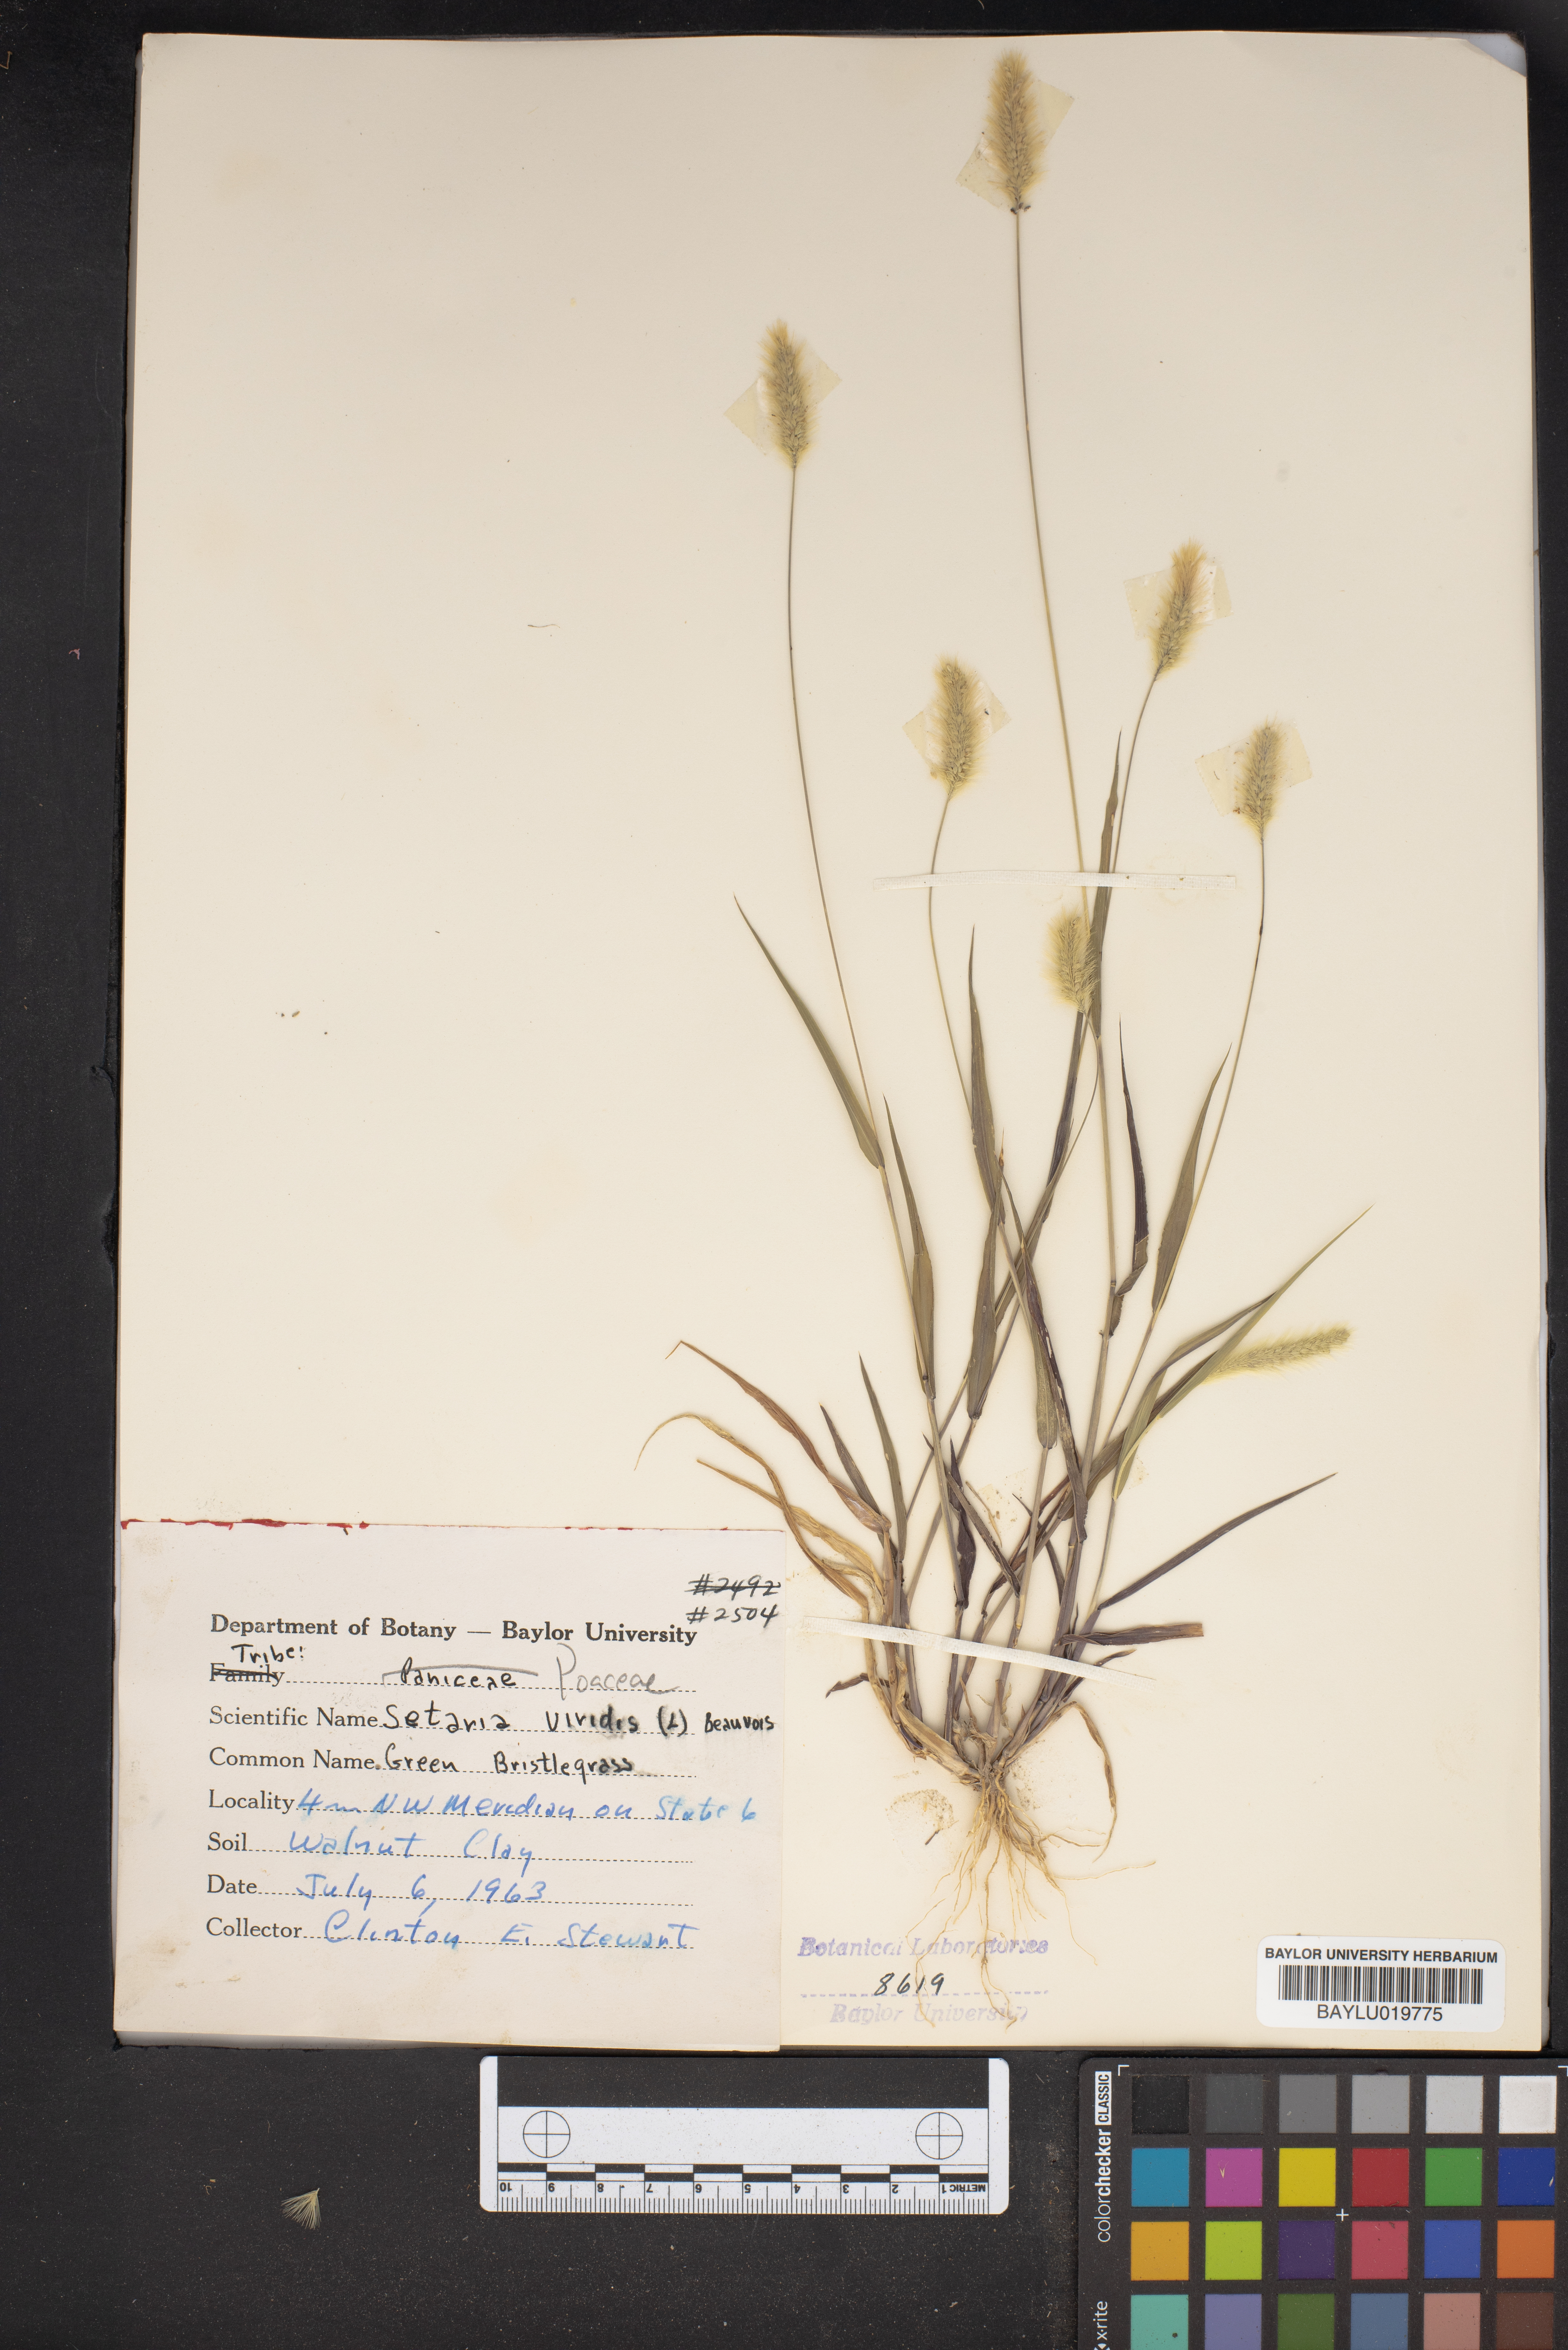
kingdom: Plantae
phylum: Tracheophyta
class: Liliopsida
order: Poales
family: Poaceae
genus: Setaria
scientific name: Setaria viridis
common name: Green bristlegrass
